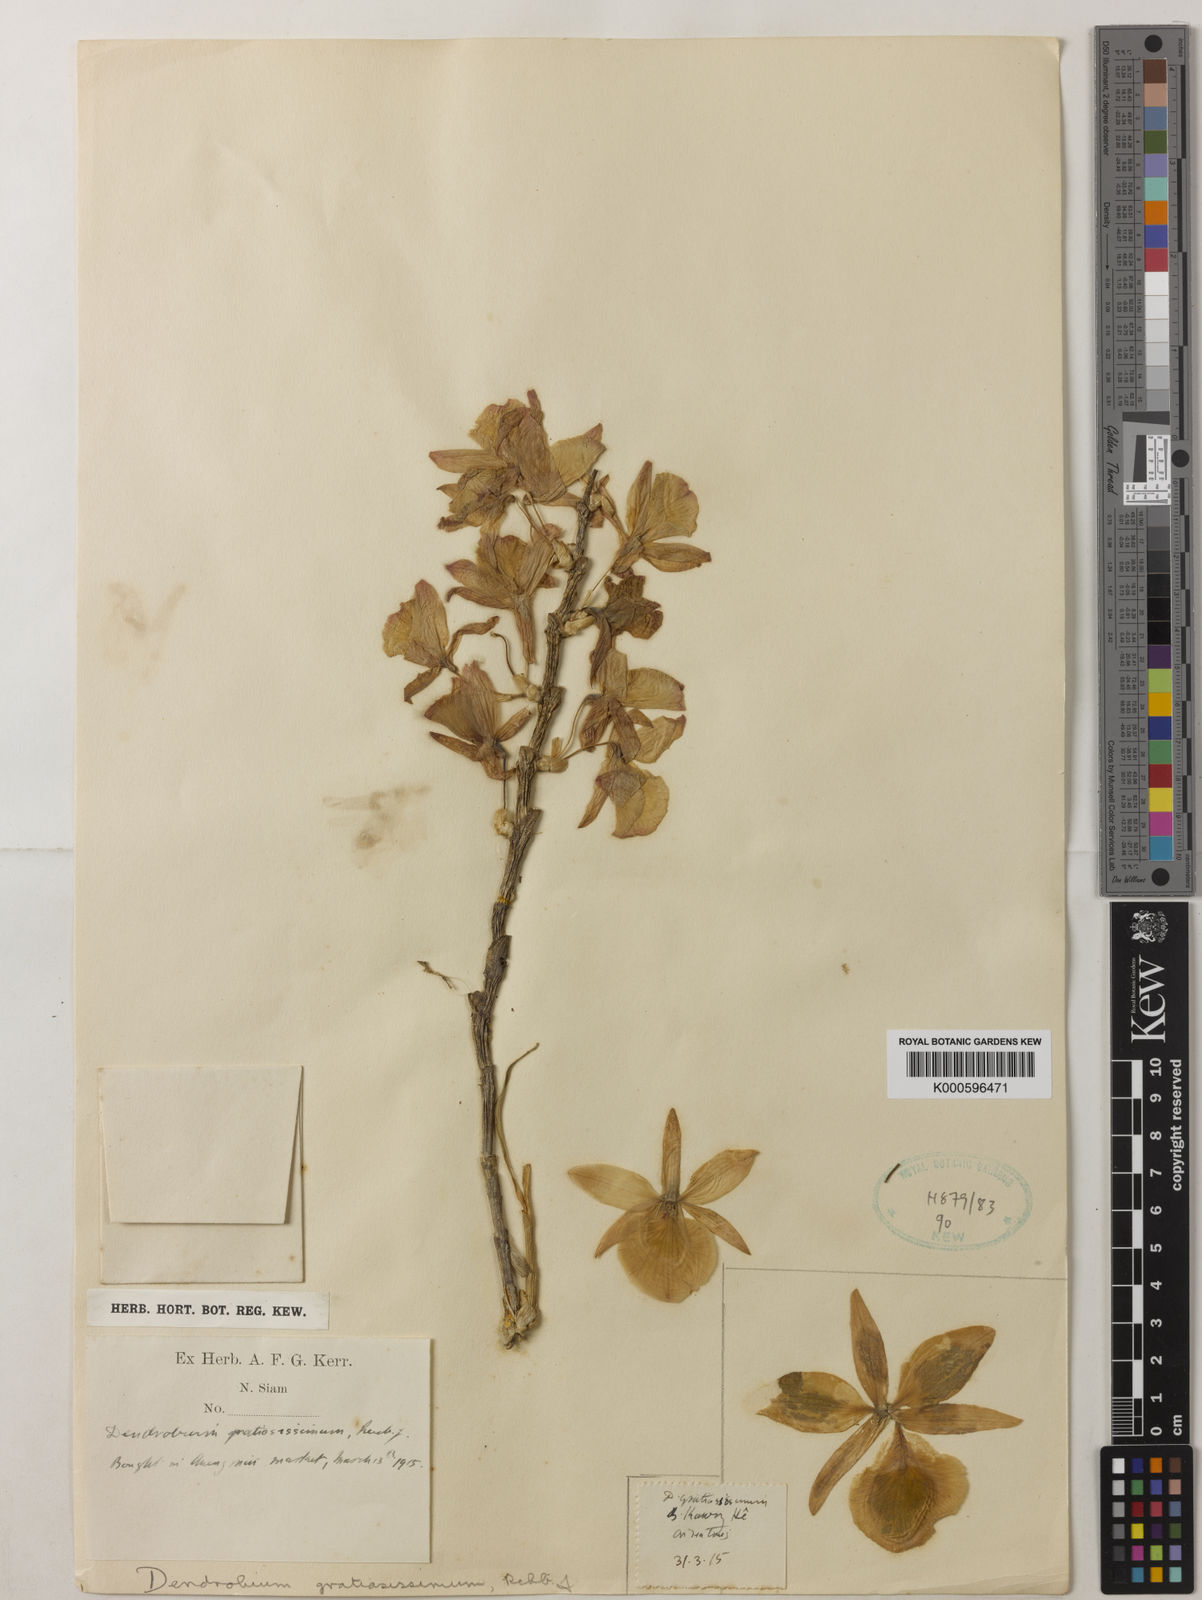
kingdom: Plantae
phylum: Tracheophyta
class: Liliopsida
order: Asparagales
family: Orchidaceae
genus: Dendrobium
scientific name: Dendrobium gratiosissimum
